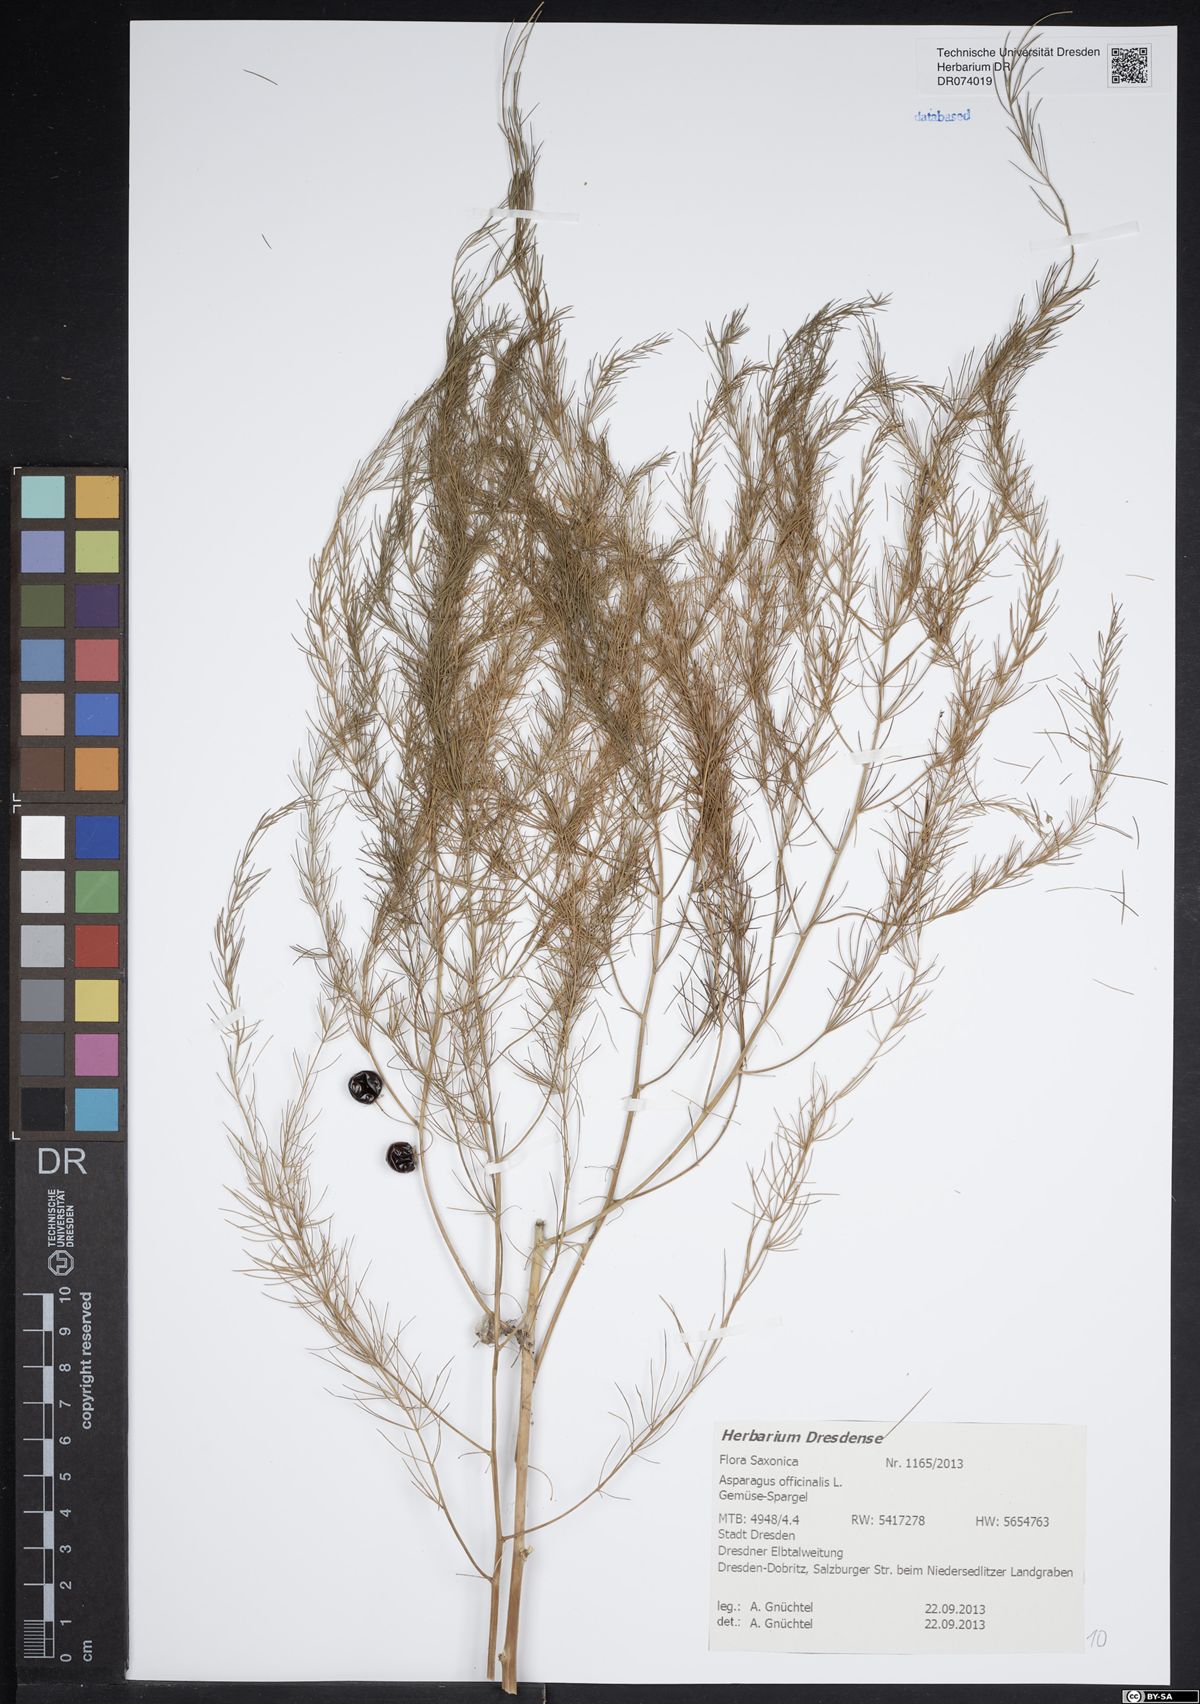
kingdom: Plantae
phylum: Tracheophyta
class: Liliopsida
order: Asparagales
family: Asparagaceae
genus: Asparagus
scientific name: Asparagus officinalis
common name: Garden asparagus
